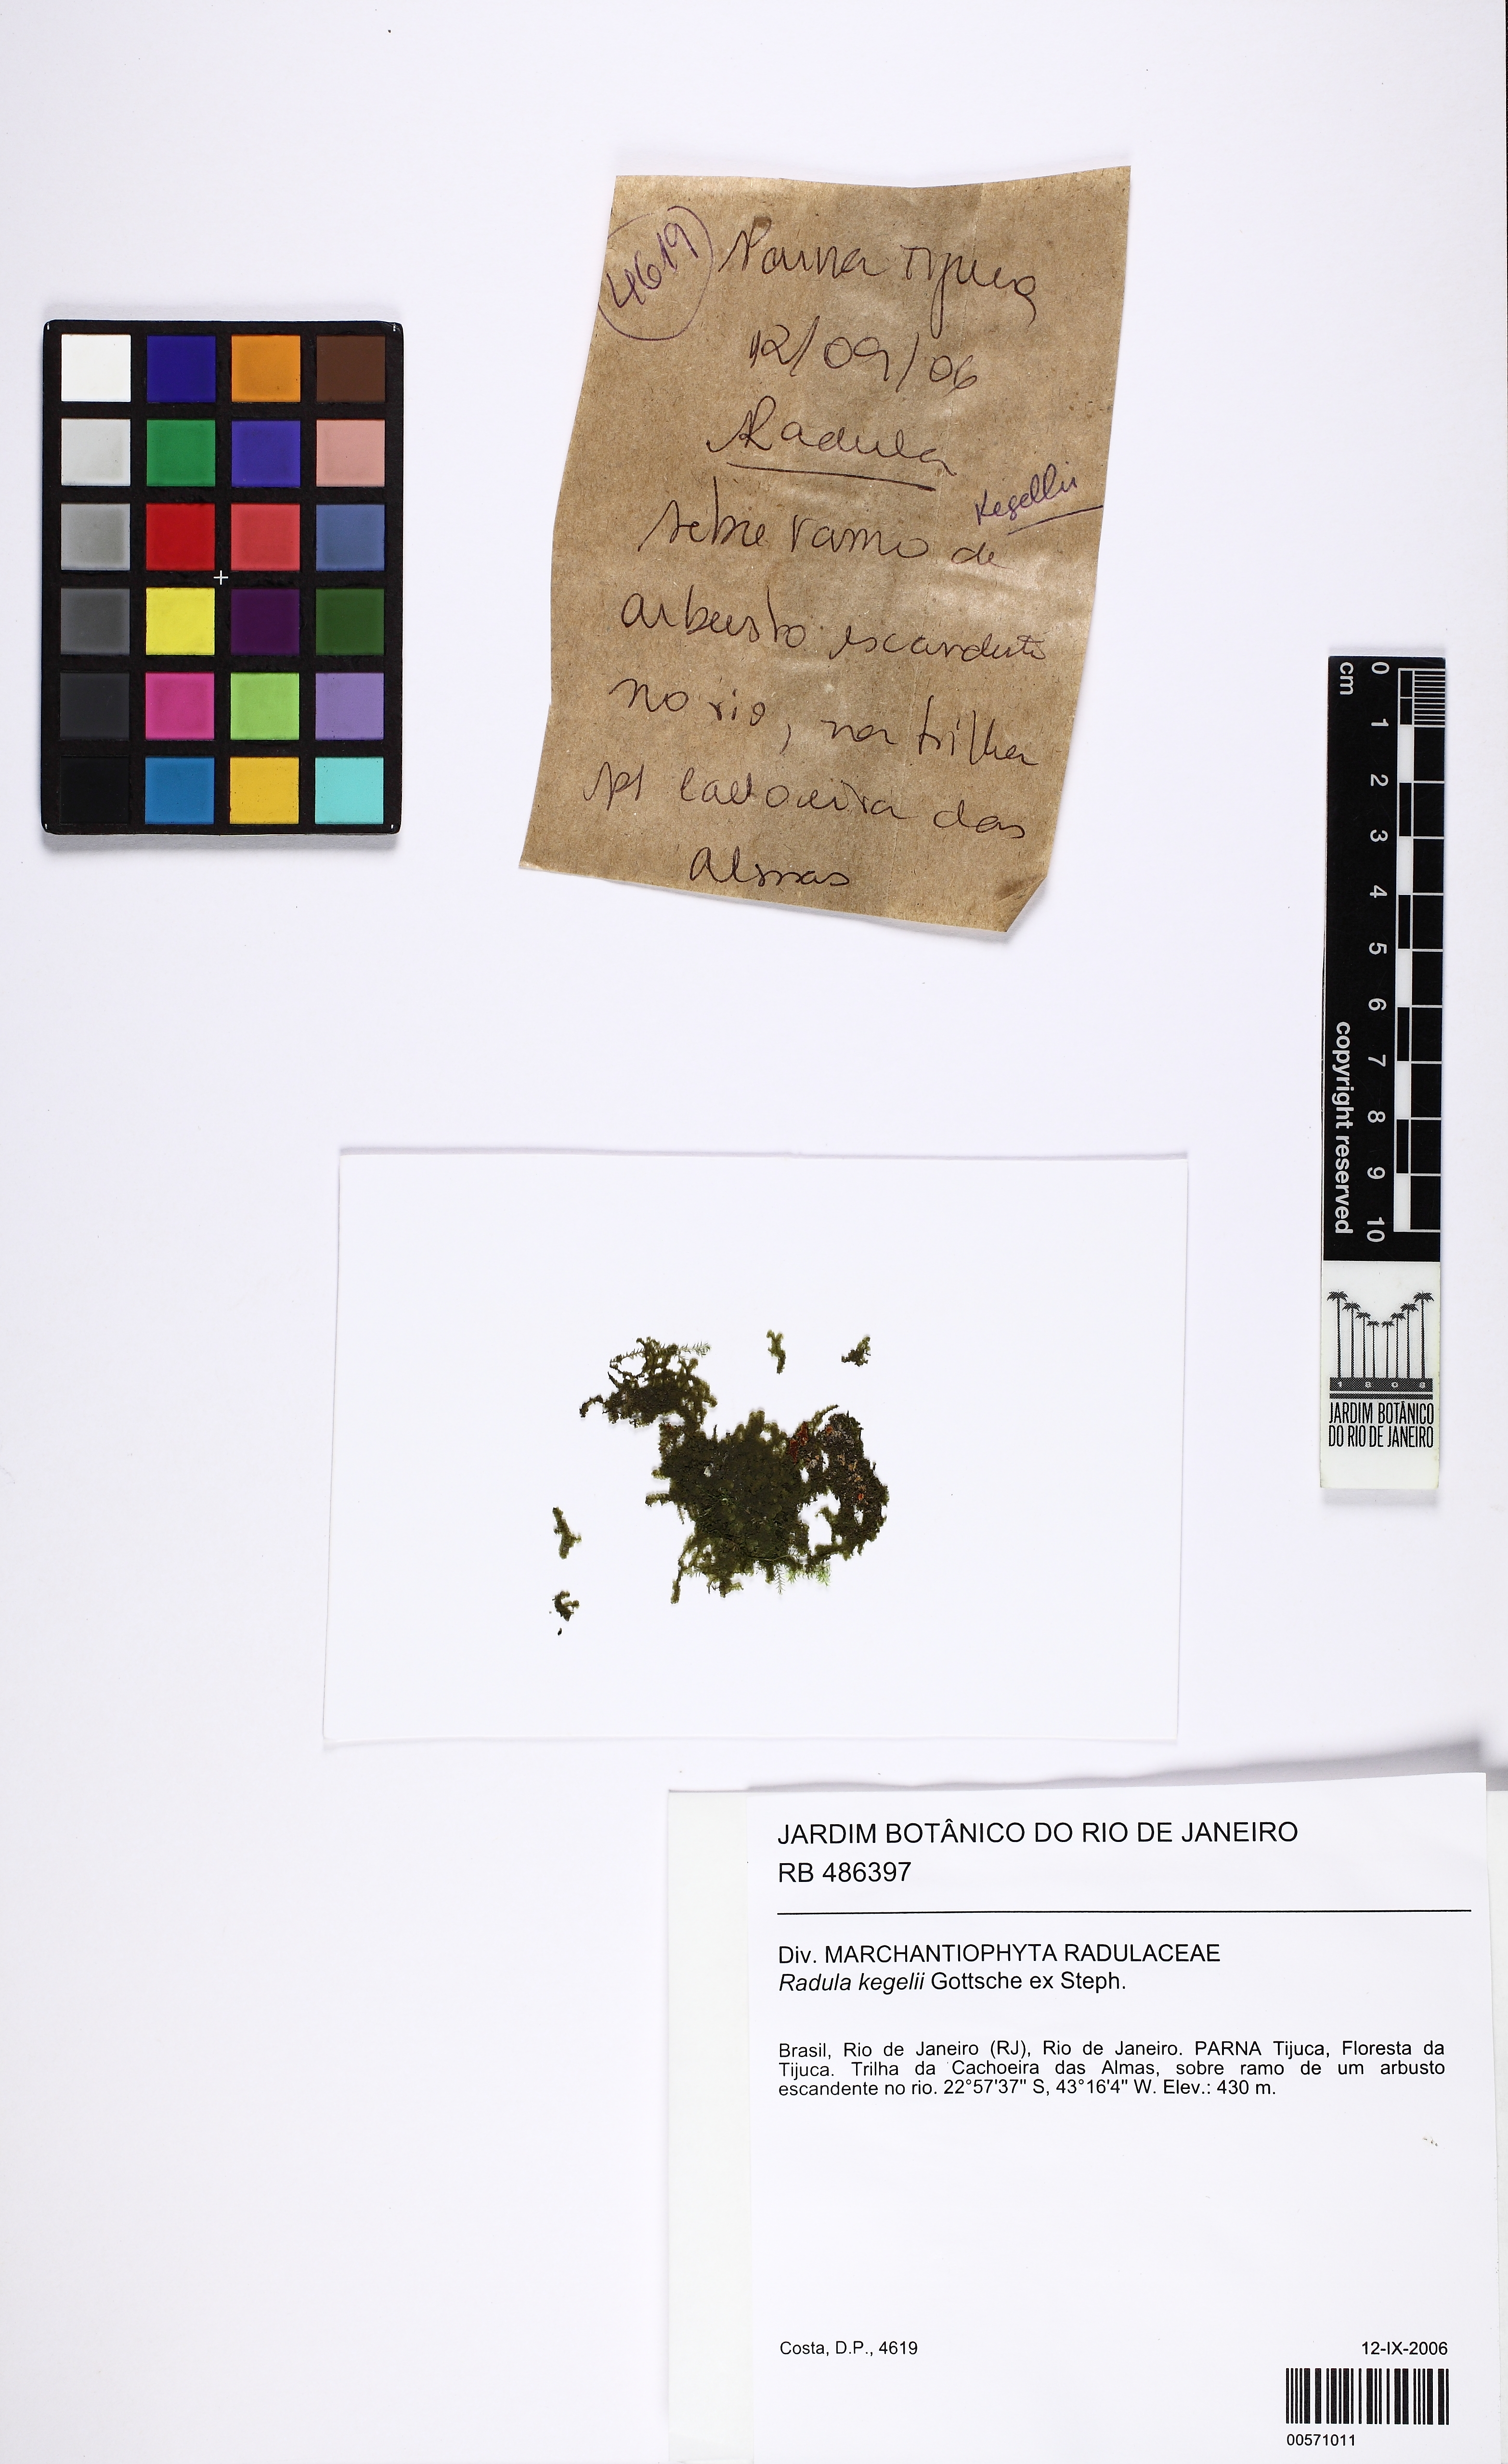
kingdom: Plantae
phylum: Marchantiophyta
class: Jungermanniopsida
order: Porellales
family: Radulaceae
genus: Radula
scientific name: Radula pallens
